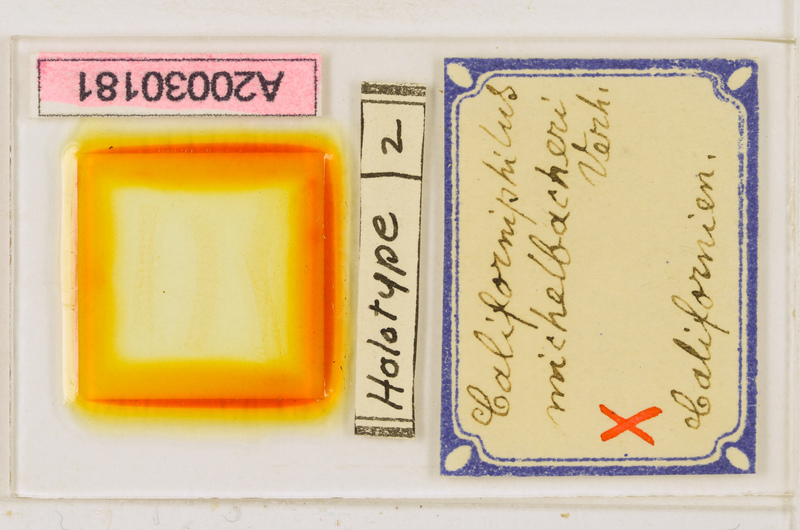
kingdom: Animalia
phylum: Arthropoda
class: Chilopoda
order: Geophilomorpha
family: Himantariidae
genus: Stigmatogaster
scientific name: Stigmatogaster subterranea
